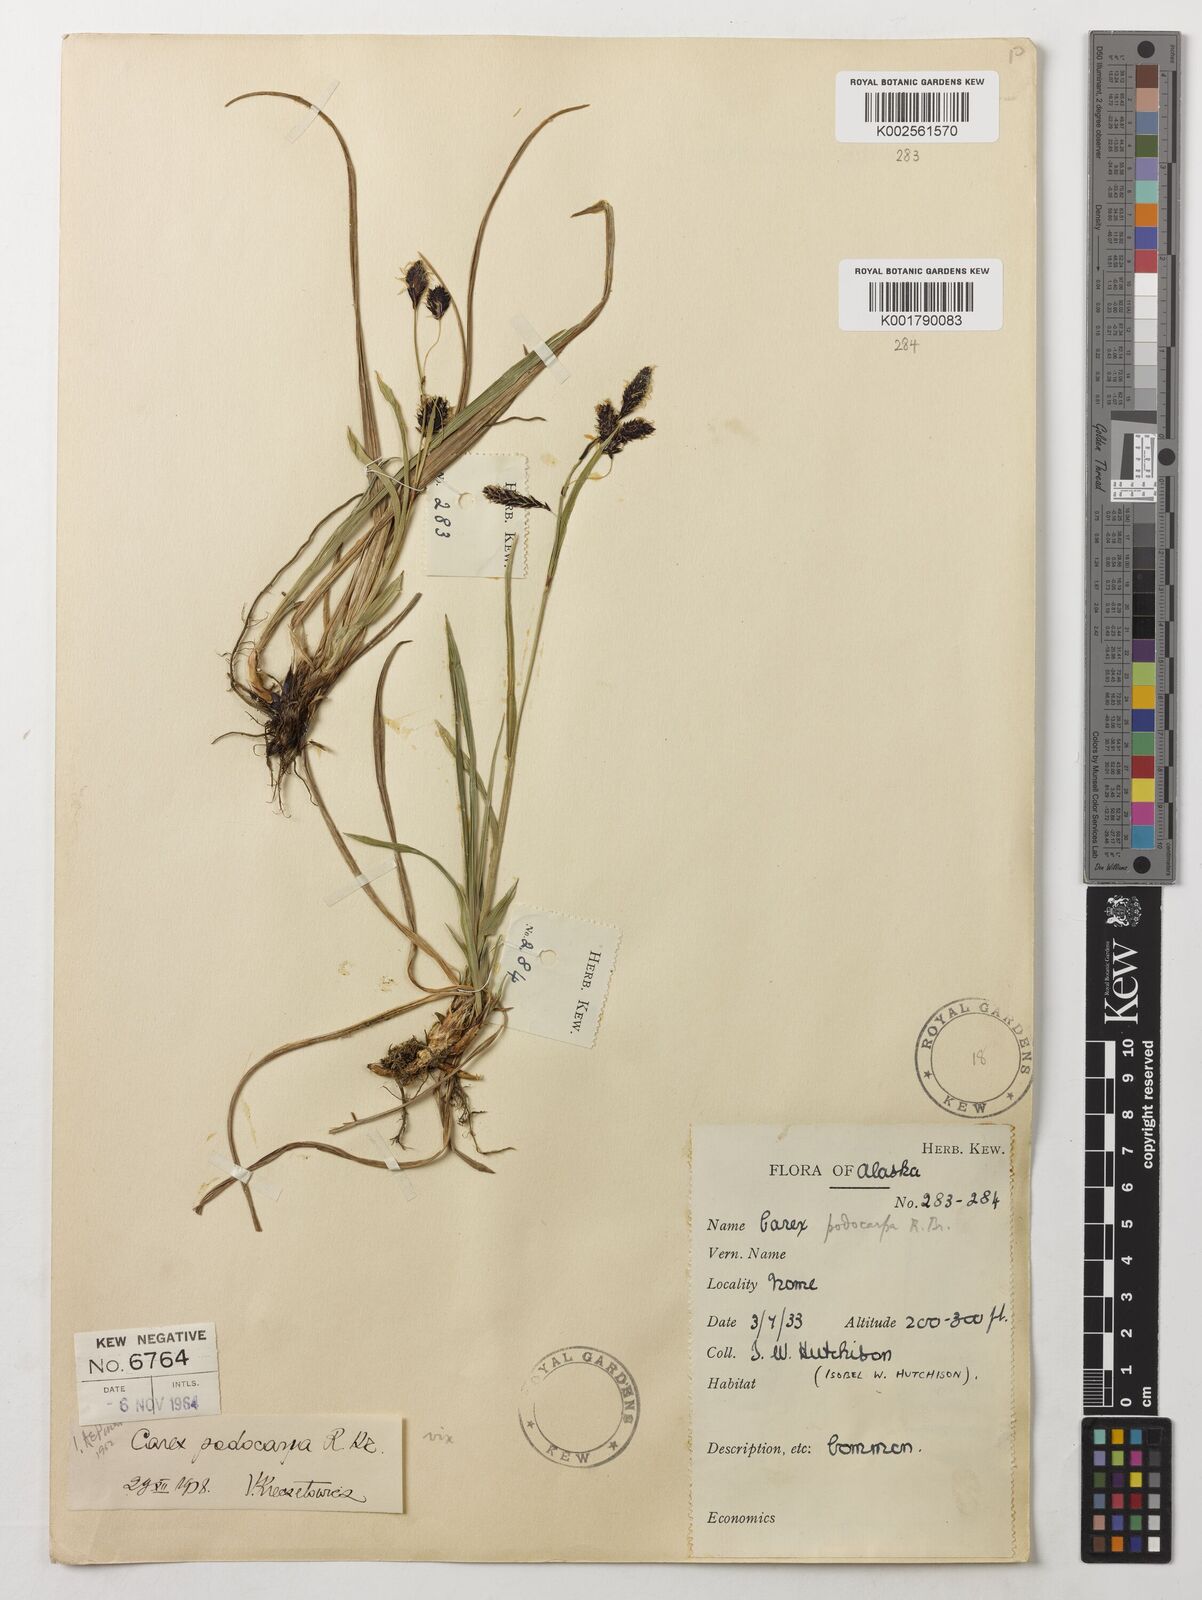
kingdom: Plantae
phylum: Tracheophyta
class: Liliopsida
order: Poales
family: Cyperaceae
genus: Carex
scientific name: Carex podocarpa
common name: Alpine sedge
